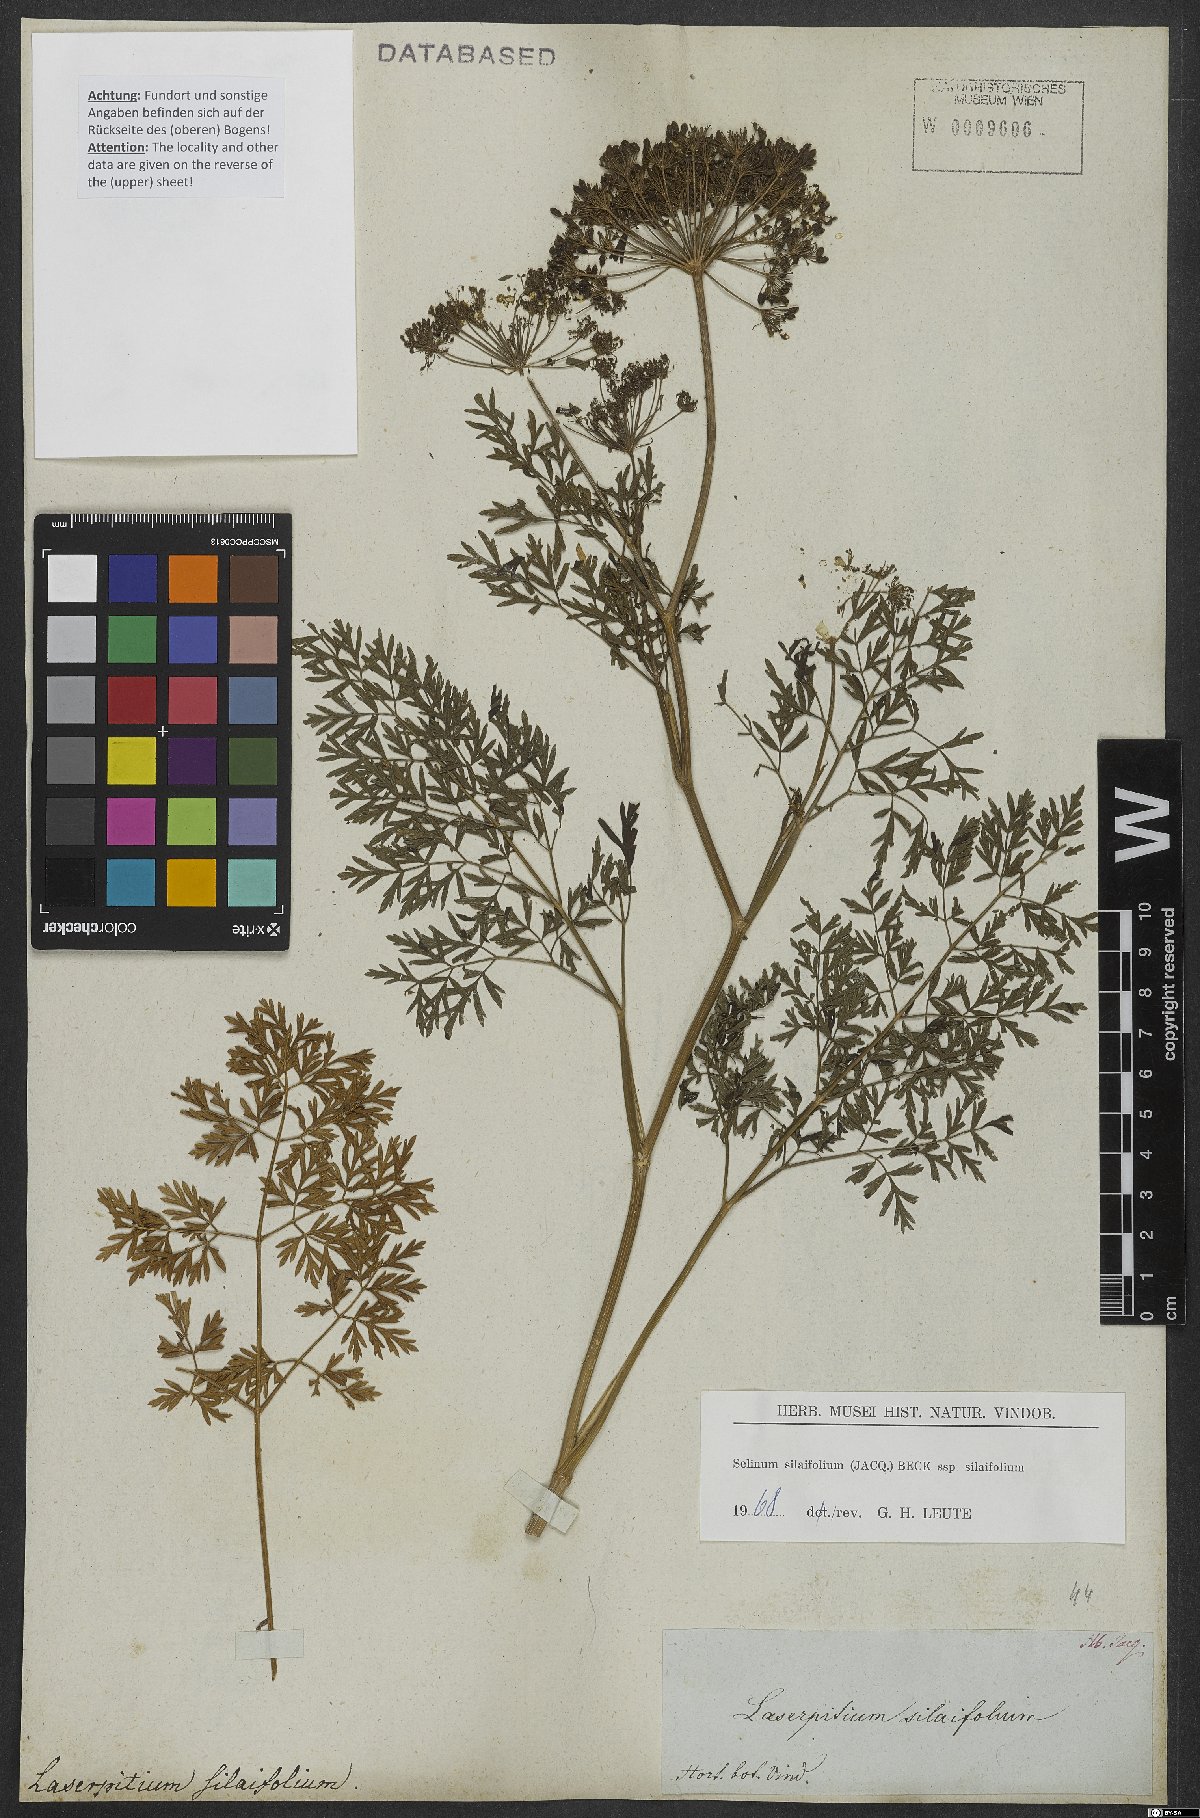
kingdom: Plantae
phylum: Tracheophyta
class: Magnoliopsida
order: Apiales
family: Apiaceae
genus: Katapsuxis
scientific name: Katapsuxis silaifolia
